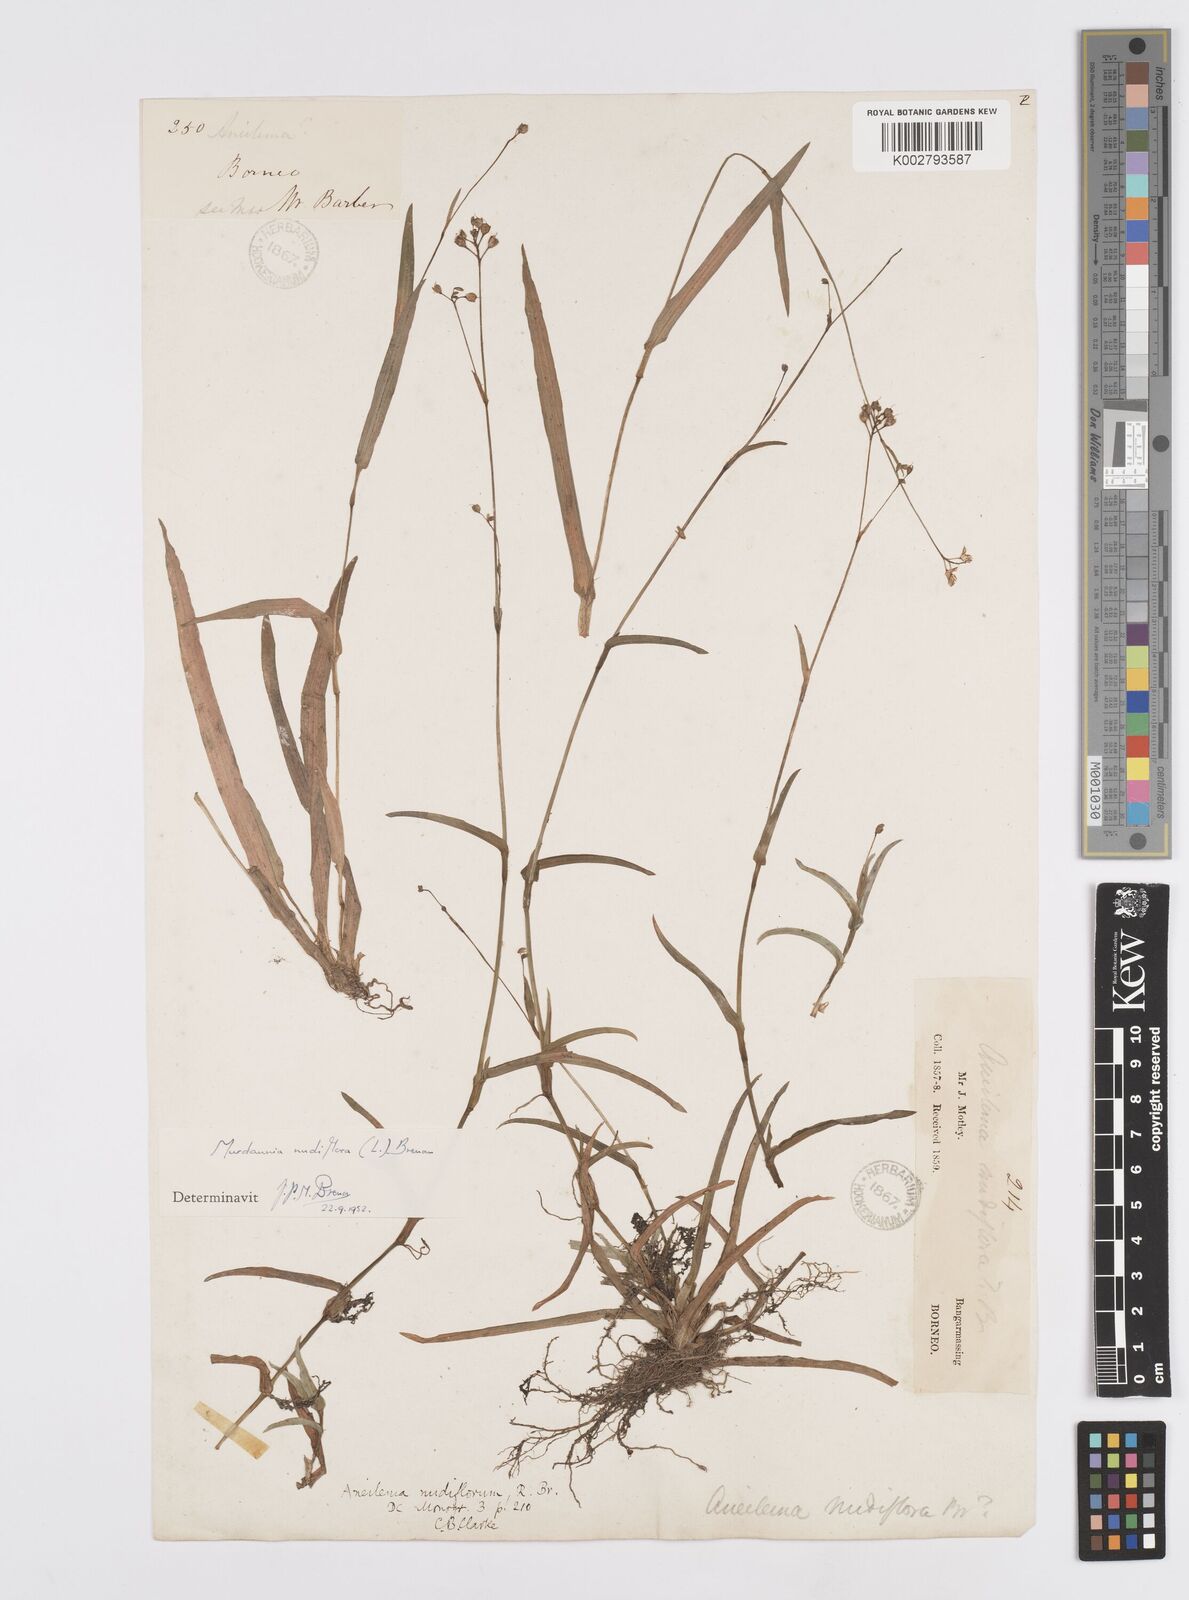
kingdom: Plantae
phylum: Tracheophyta
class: Liliopsida
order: Commelinales
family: Commelinaceae
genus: Murdannia
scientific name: Murdannia nudiflora
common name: Nakedstem dewflower
